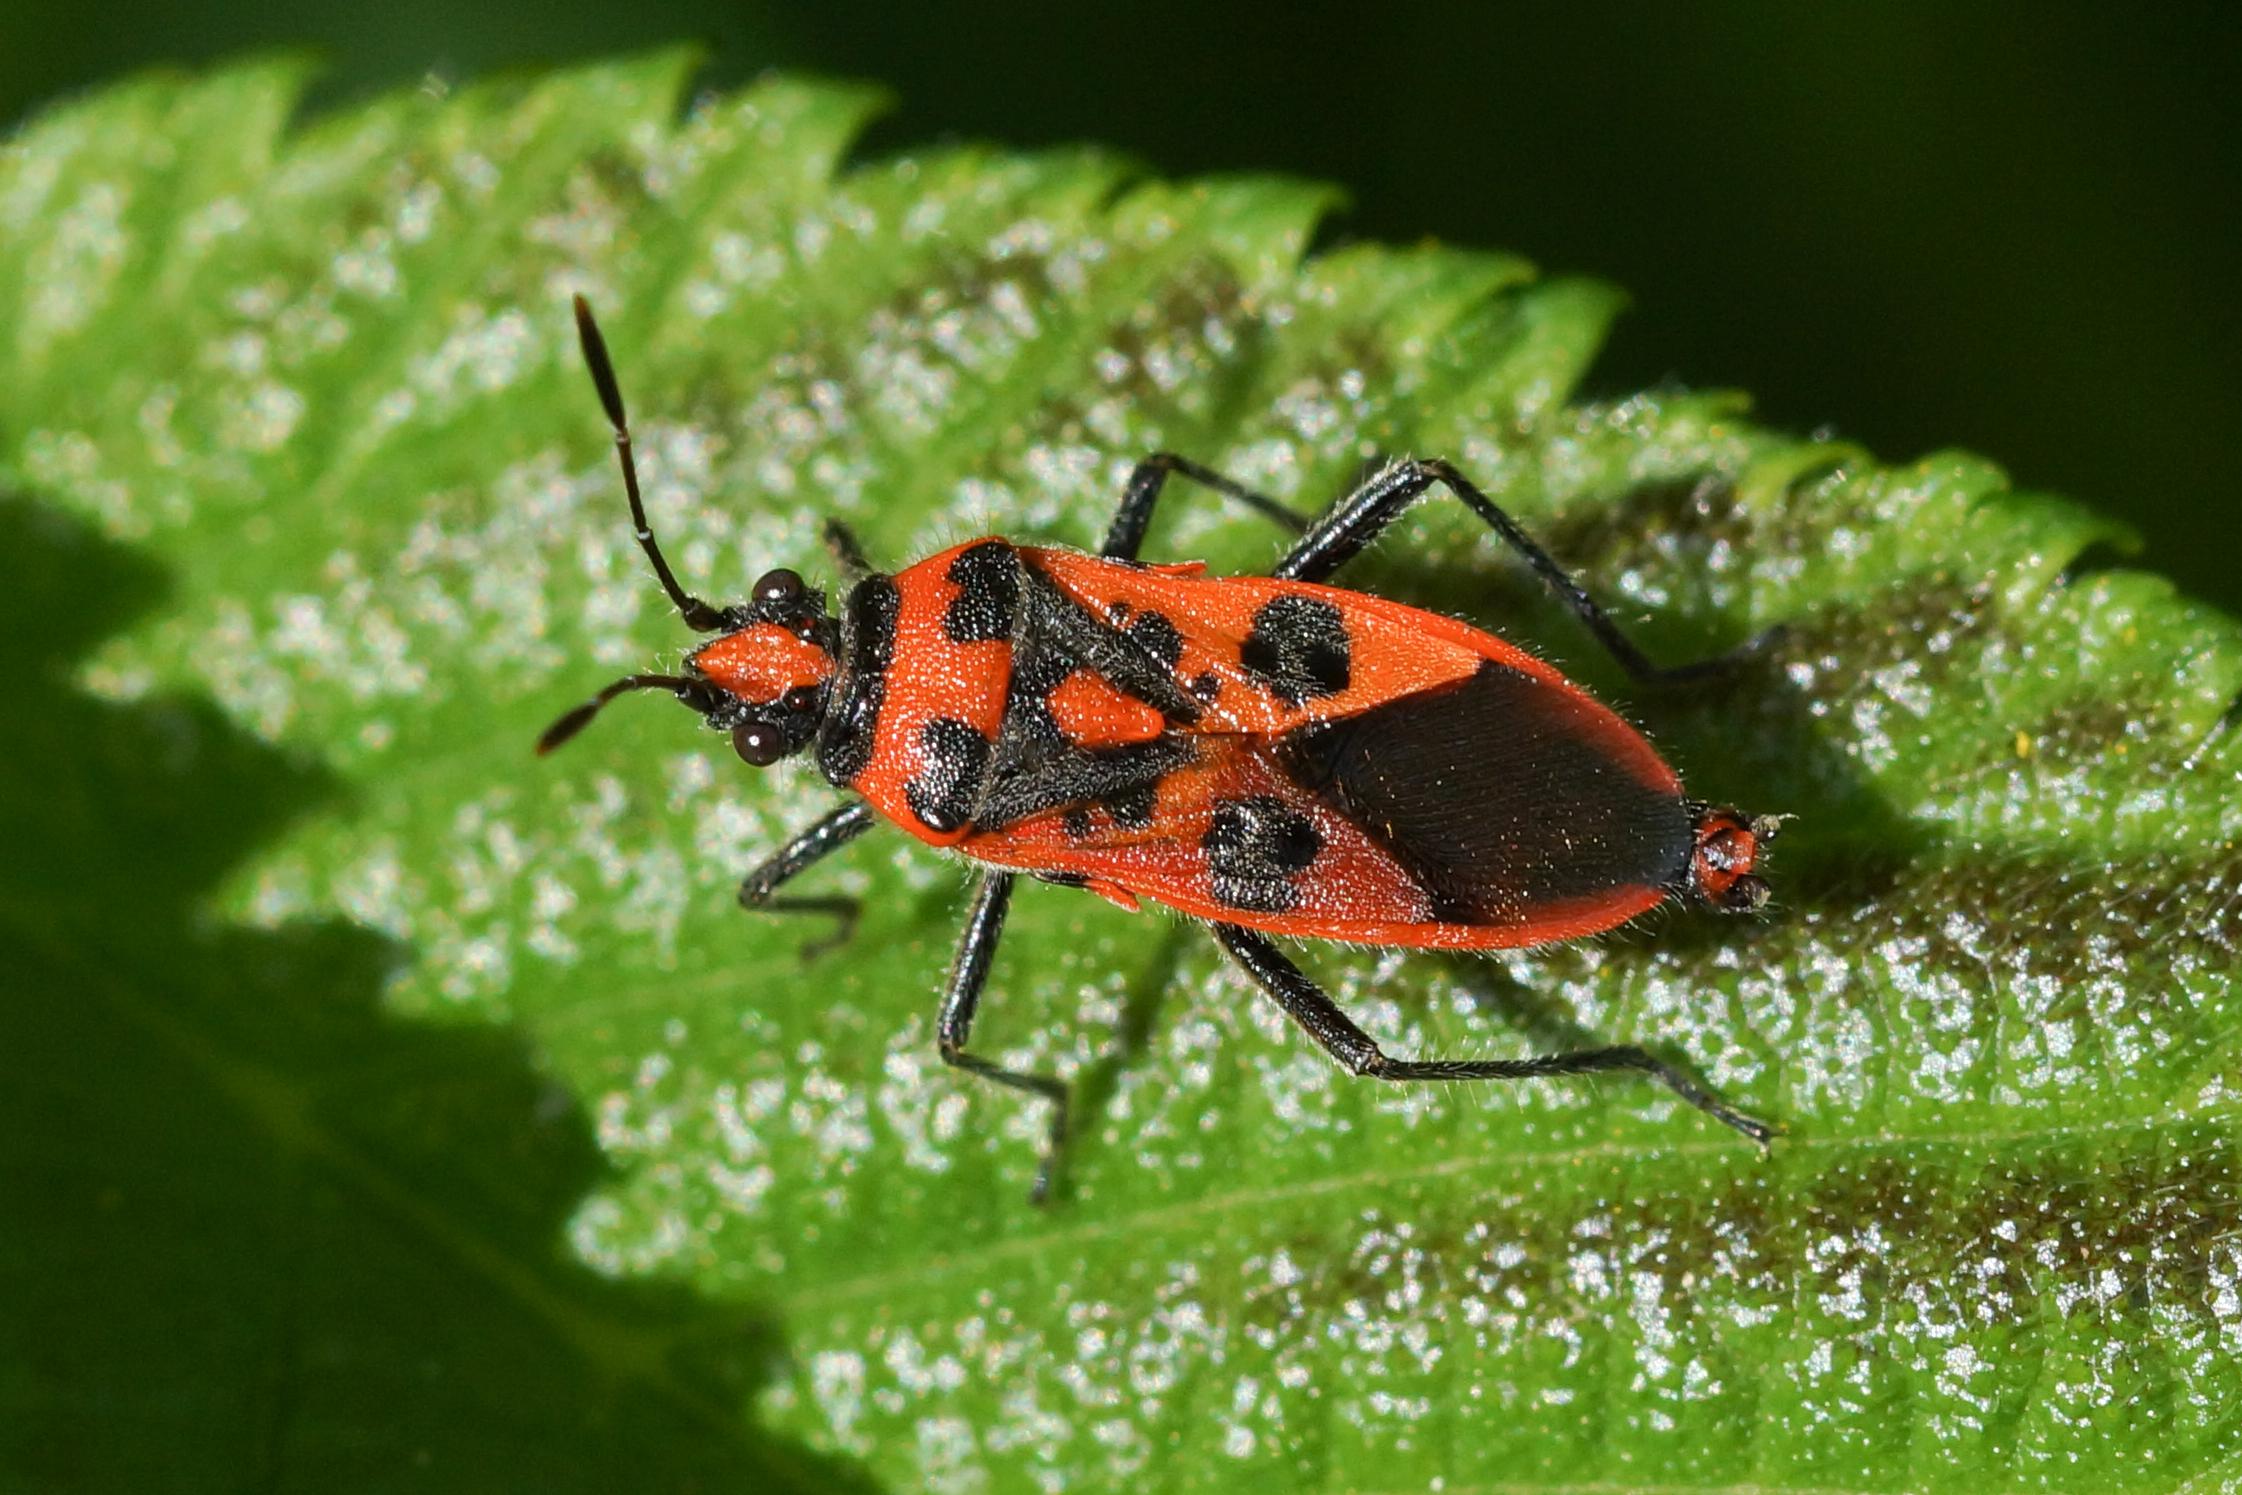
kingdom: Animalia
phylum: Arthropoda
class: Insecta
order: Hemiptera
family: Rhopalidae
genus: Corizus
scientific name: Corizus hyoscyami
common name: Rød kanttæge
